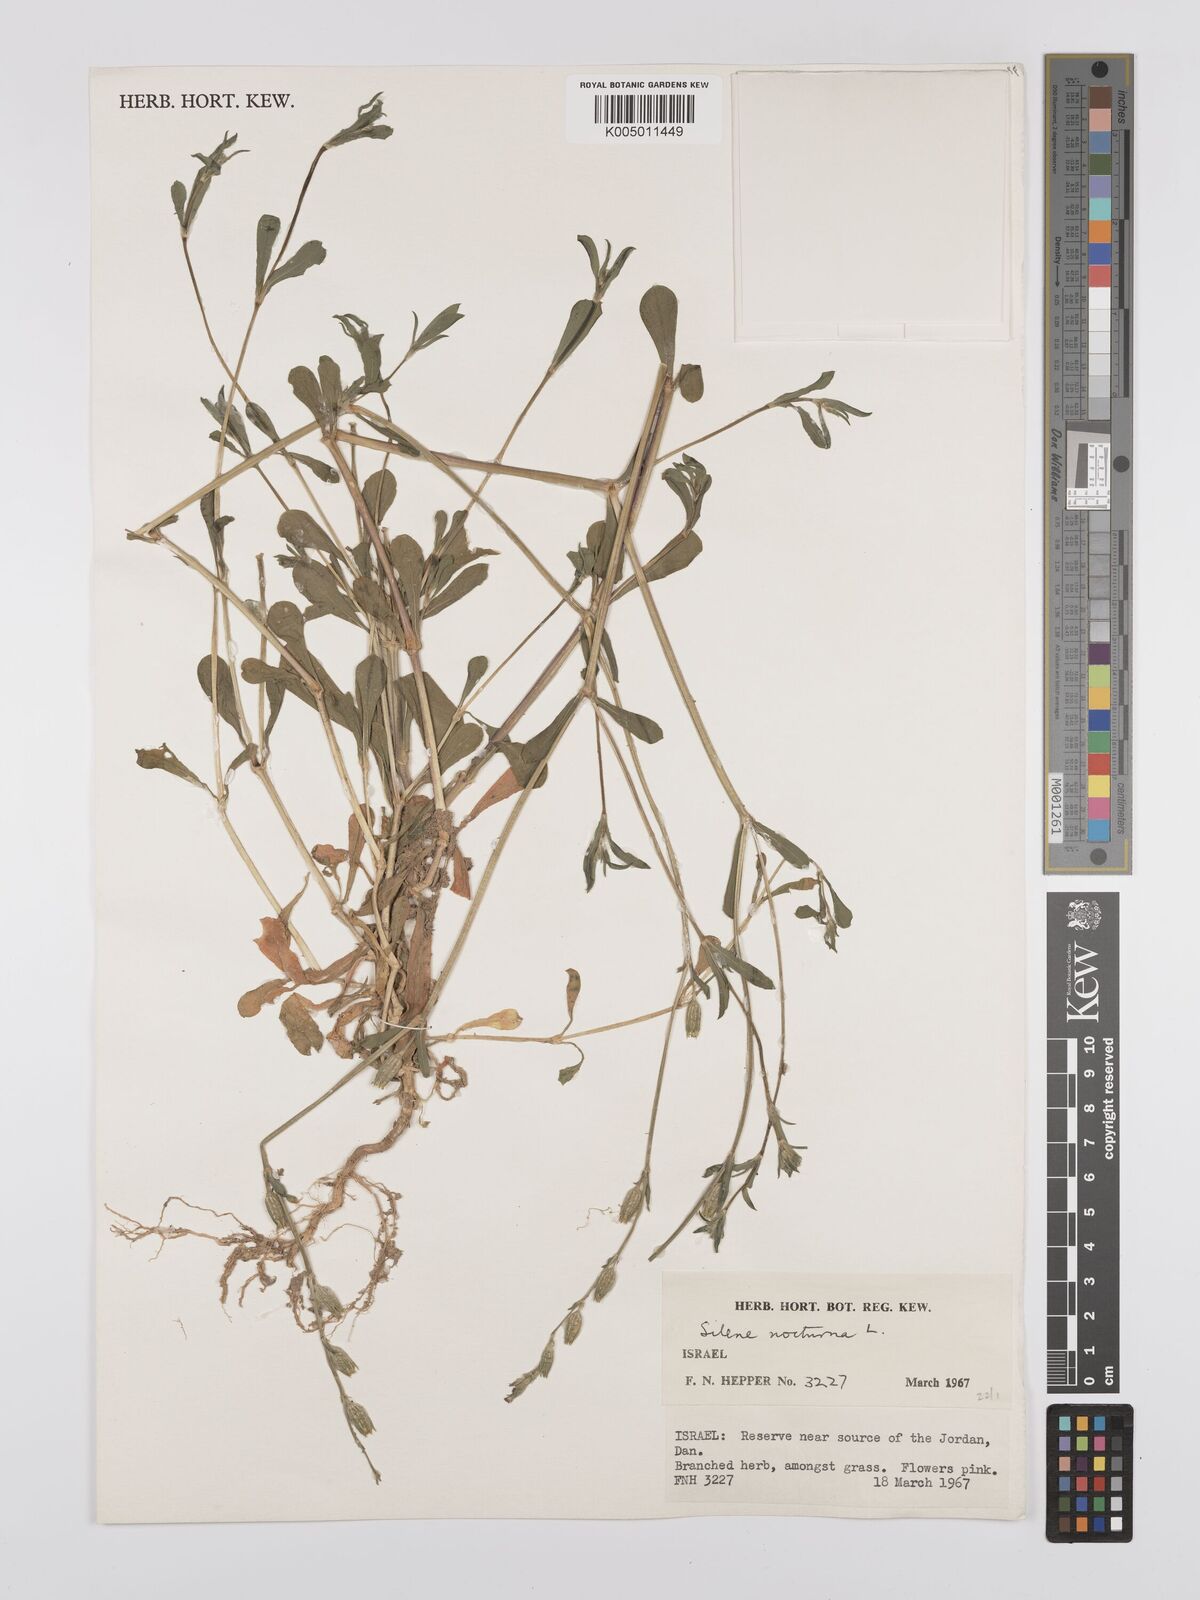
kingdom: Plantae
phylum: Tracheophyta
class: Magnoliopsida
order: Caryophyllales
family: Caryophyllaceae
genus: Silene
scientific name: Silene nocturna
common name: Mediterranean catchfly
